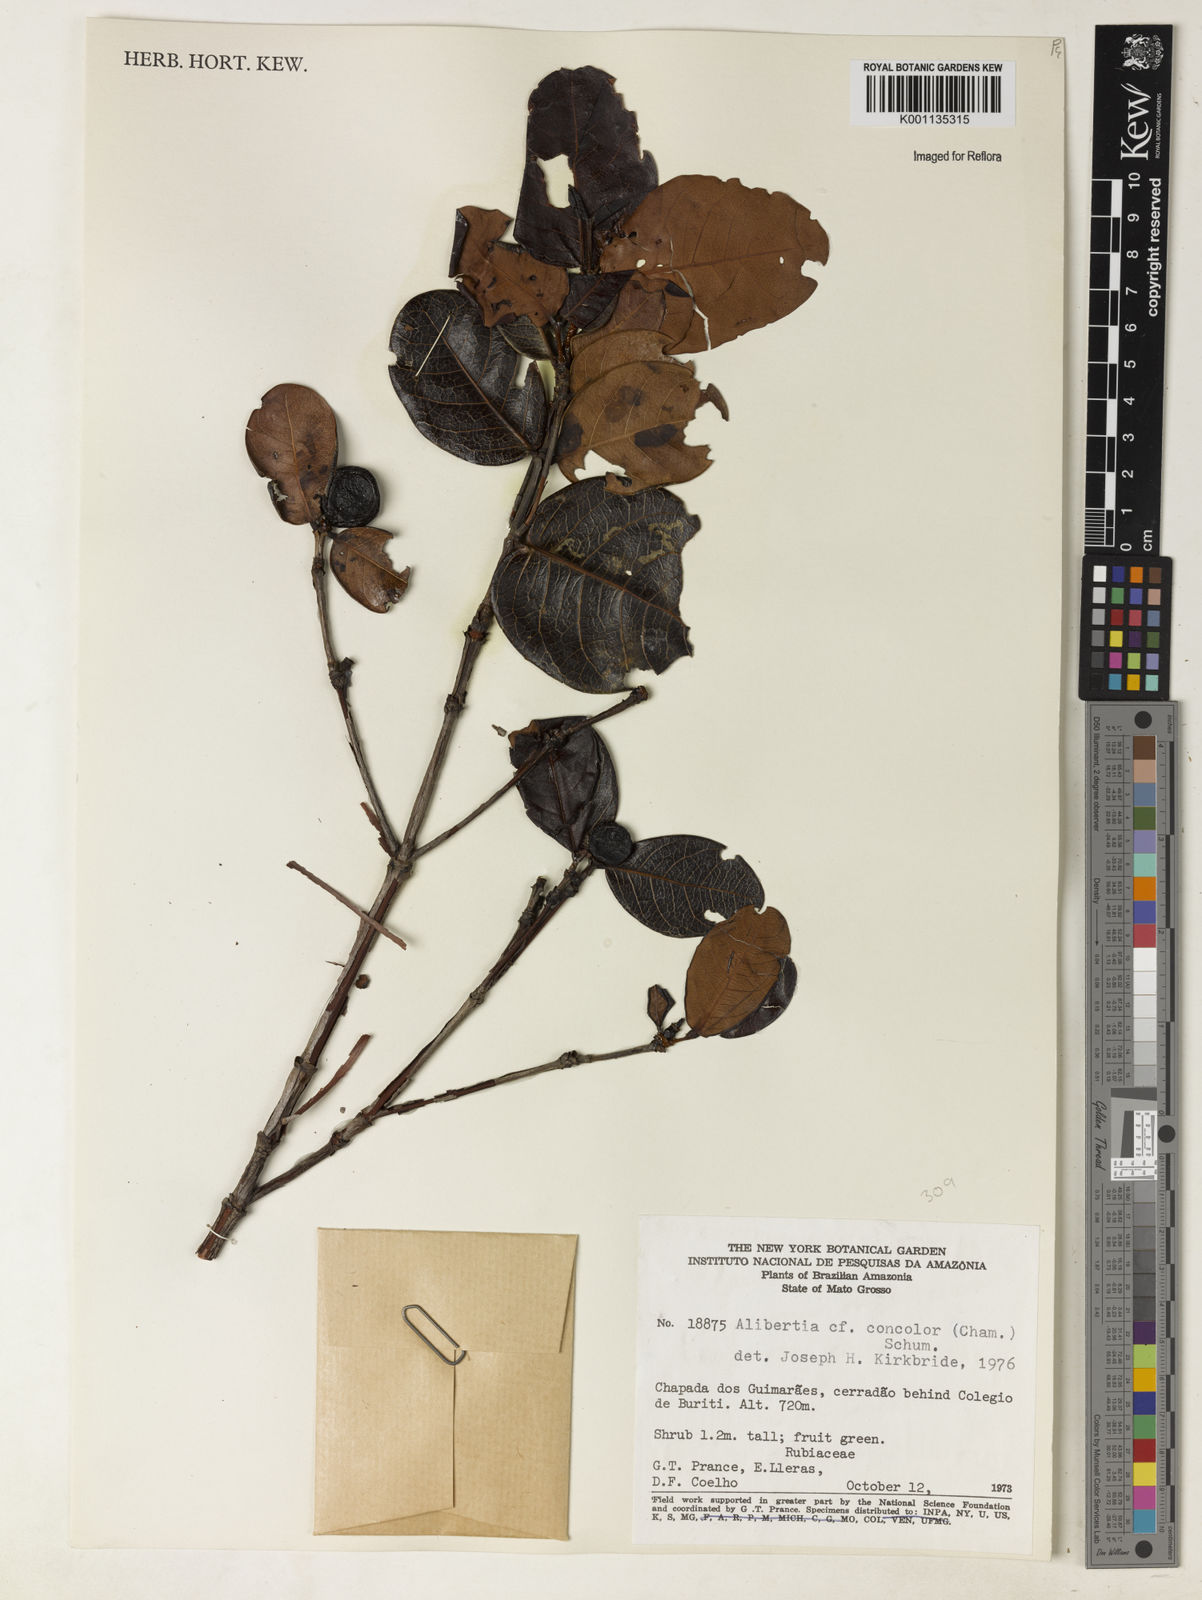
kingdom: Plantae
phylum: Tracheophyta
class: Magnoliopsida
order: Gentianales
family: Rubiaceae
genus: Cordiera
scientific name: Cordiera concolor
